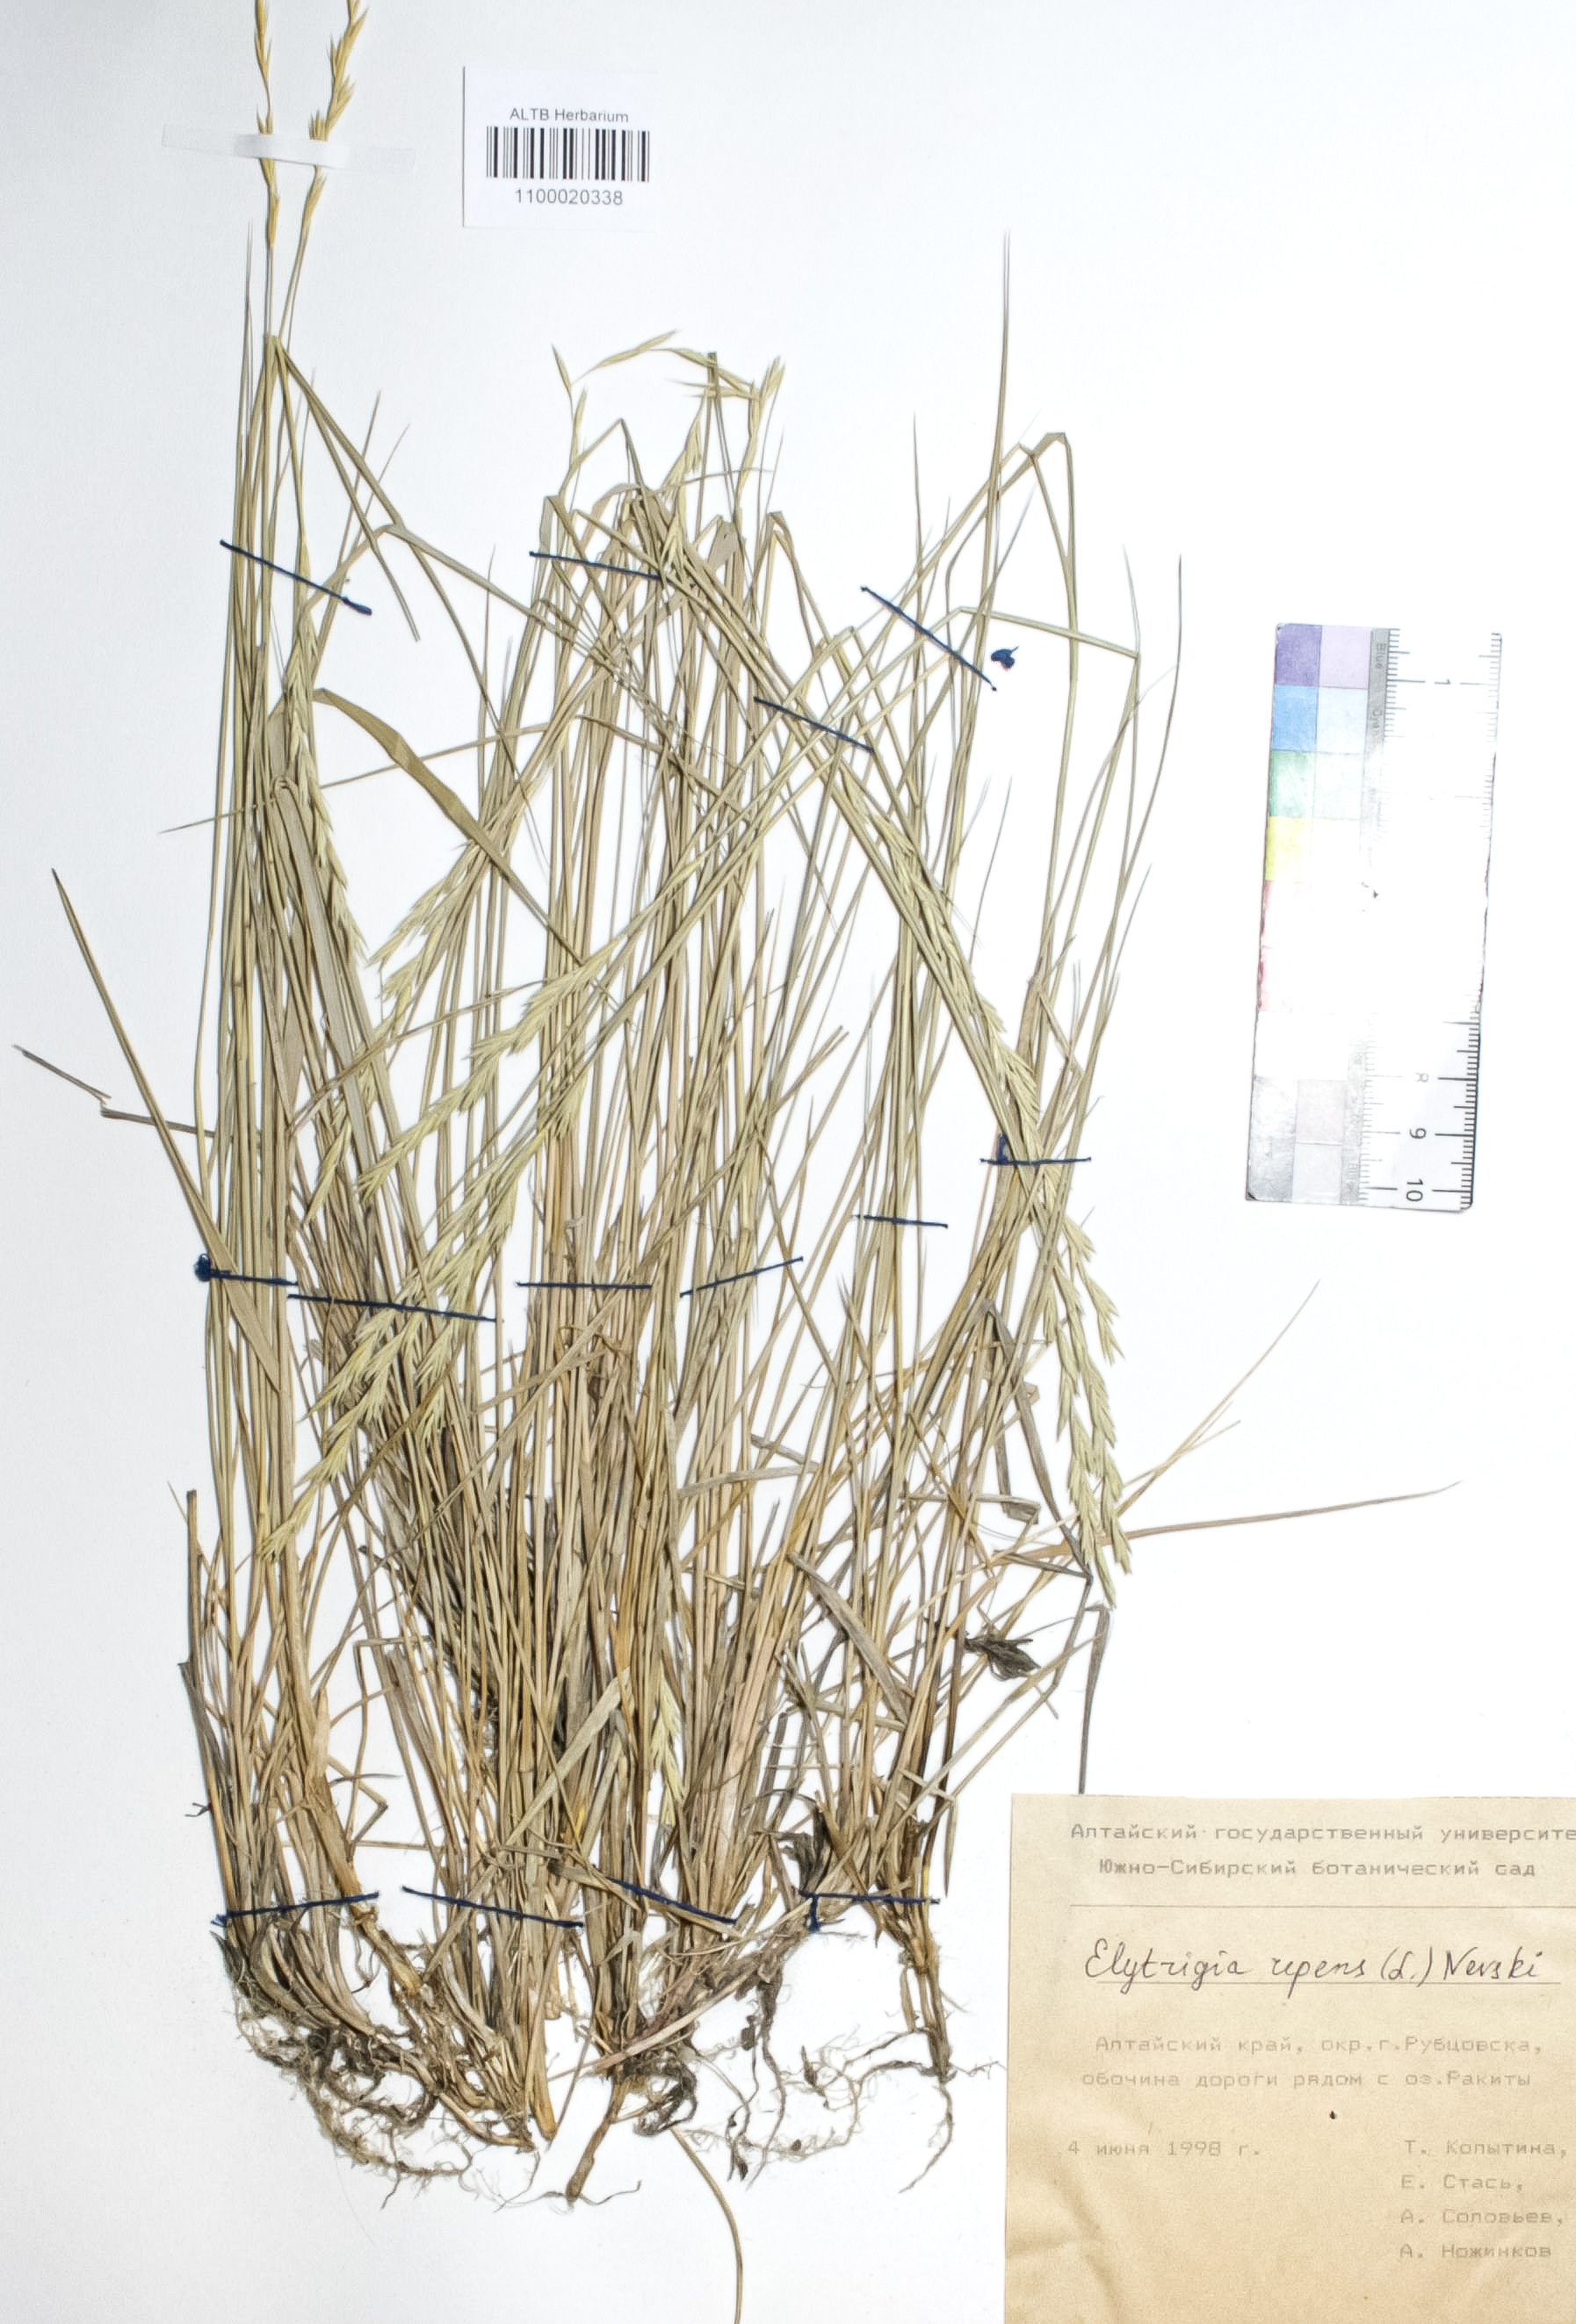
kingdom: Plantae
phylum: Tracheophyta
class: Liliopsida
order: Poales
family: Poaceae
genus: Elymus
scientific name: Elymus repens
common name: Quackgrass
